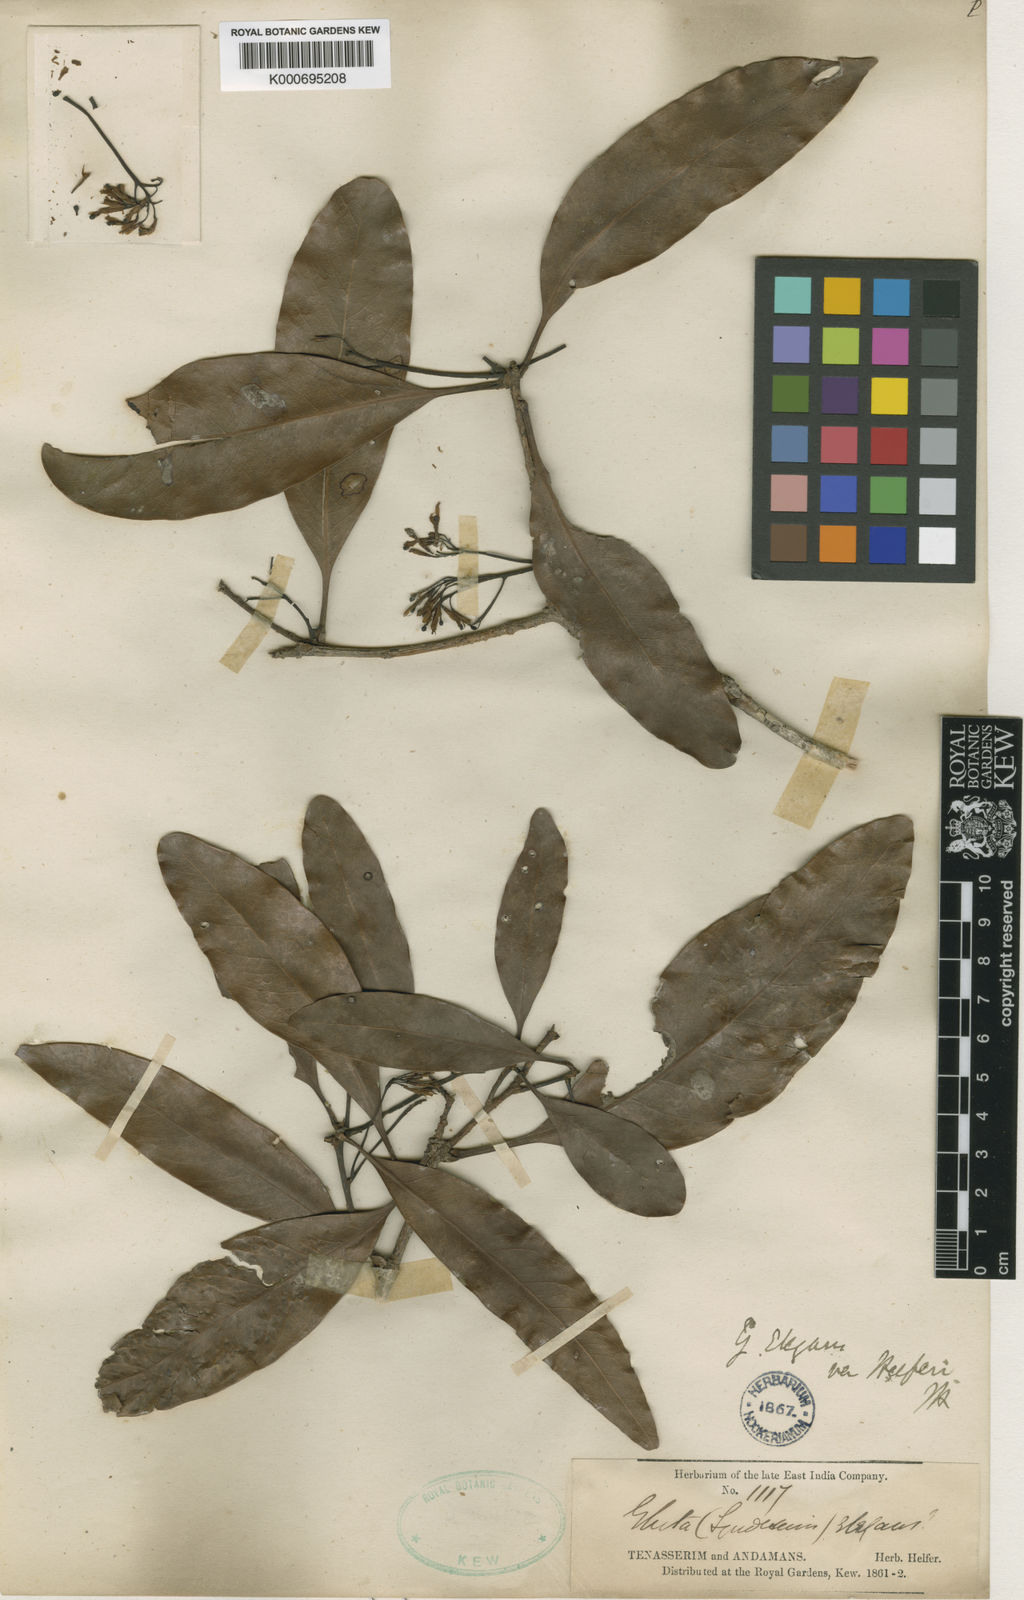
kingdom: Plantae
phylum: Tracheophyta
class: Magnoliopsida
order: Sapindales
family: Anacardiaceae
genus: Gluta
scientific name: Gluta
